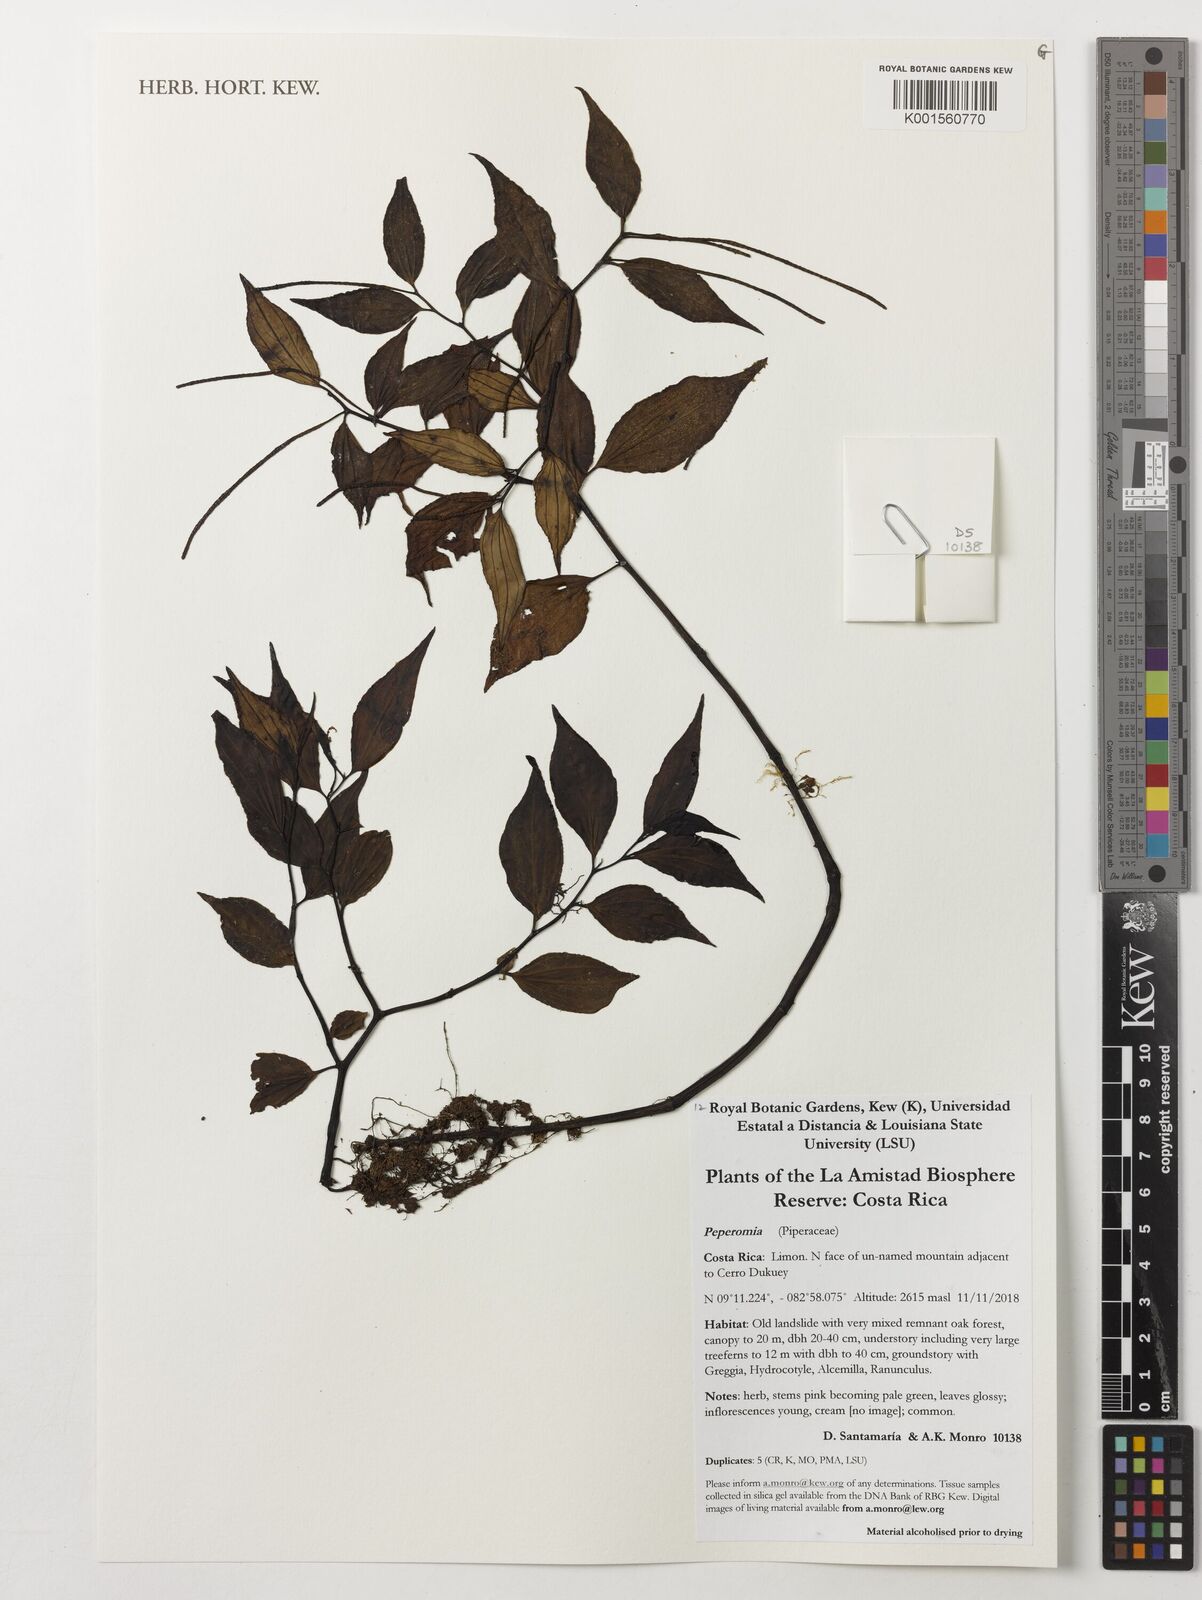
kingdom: Plantae
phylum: Tracheophyta
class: Magnoliopsida
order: Piperales
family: Piperaceae
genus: Peperomia
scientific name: Peperomia
